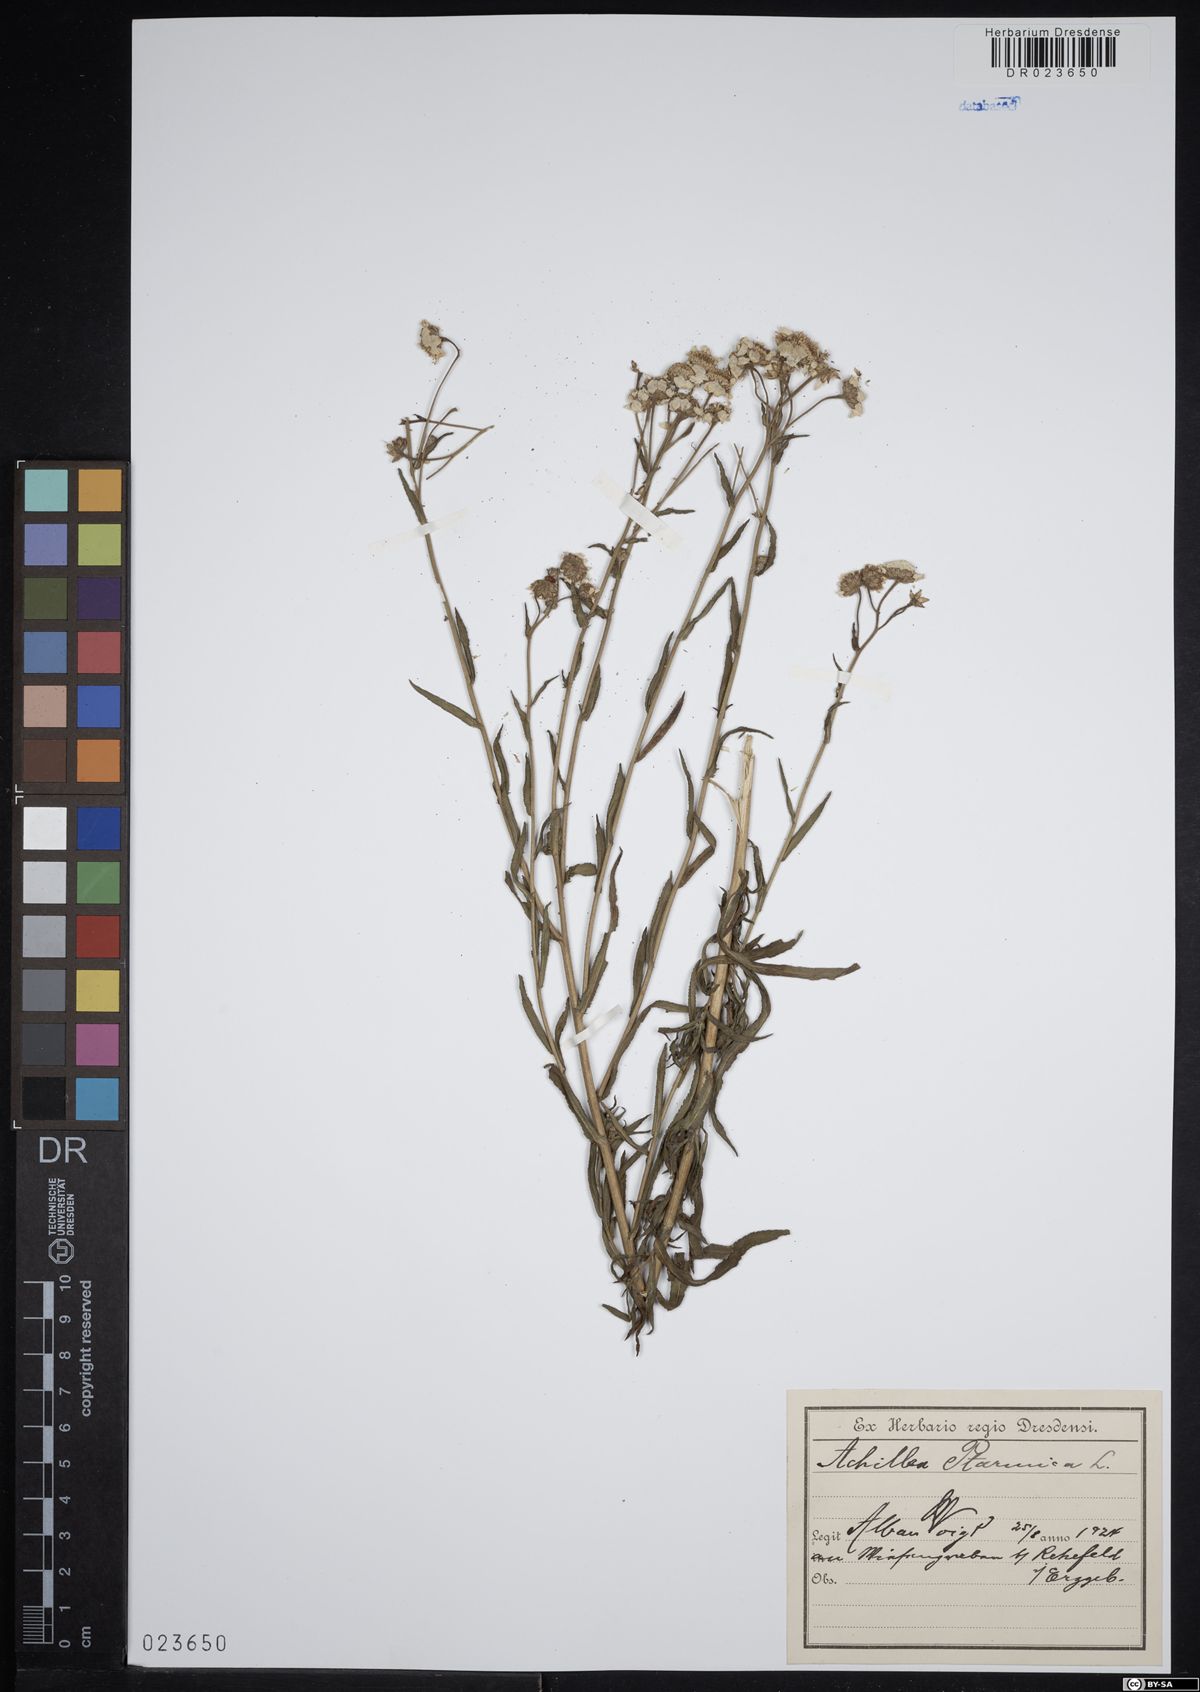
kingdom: Plantae
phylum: Tracheophyta
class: Magnoliopsida
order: Asterales
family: Asteraceae
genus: Achillea
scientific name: Achillea ptarmica
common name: Sneezeweed
